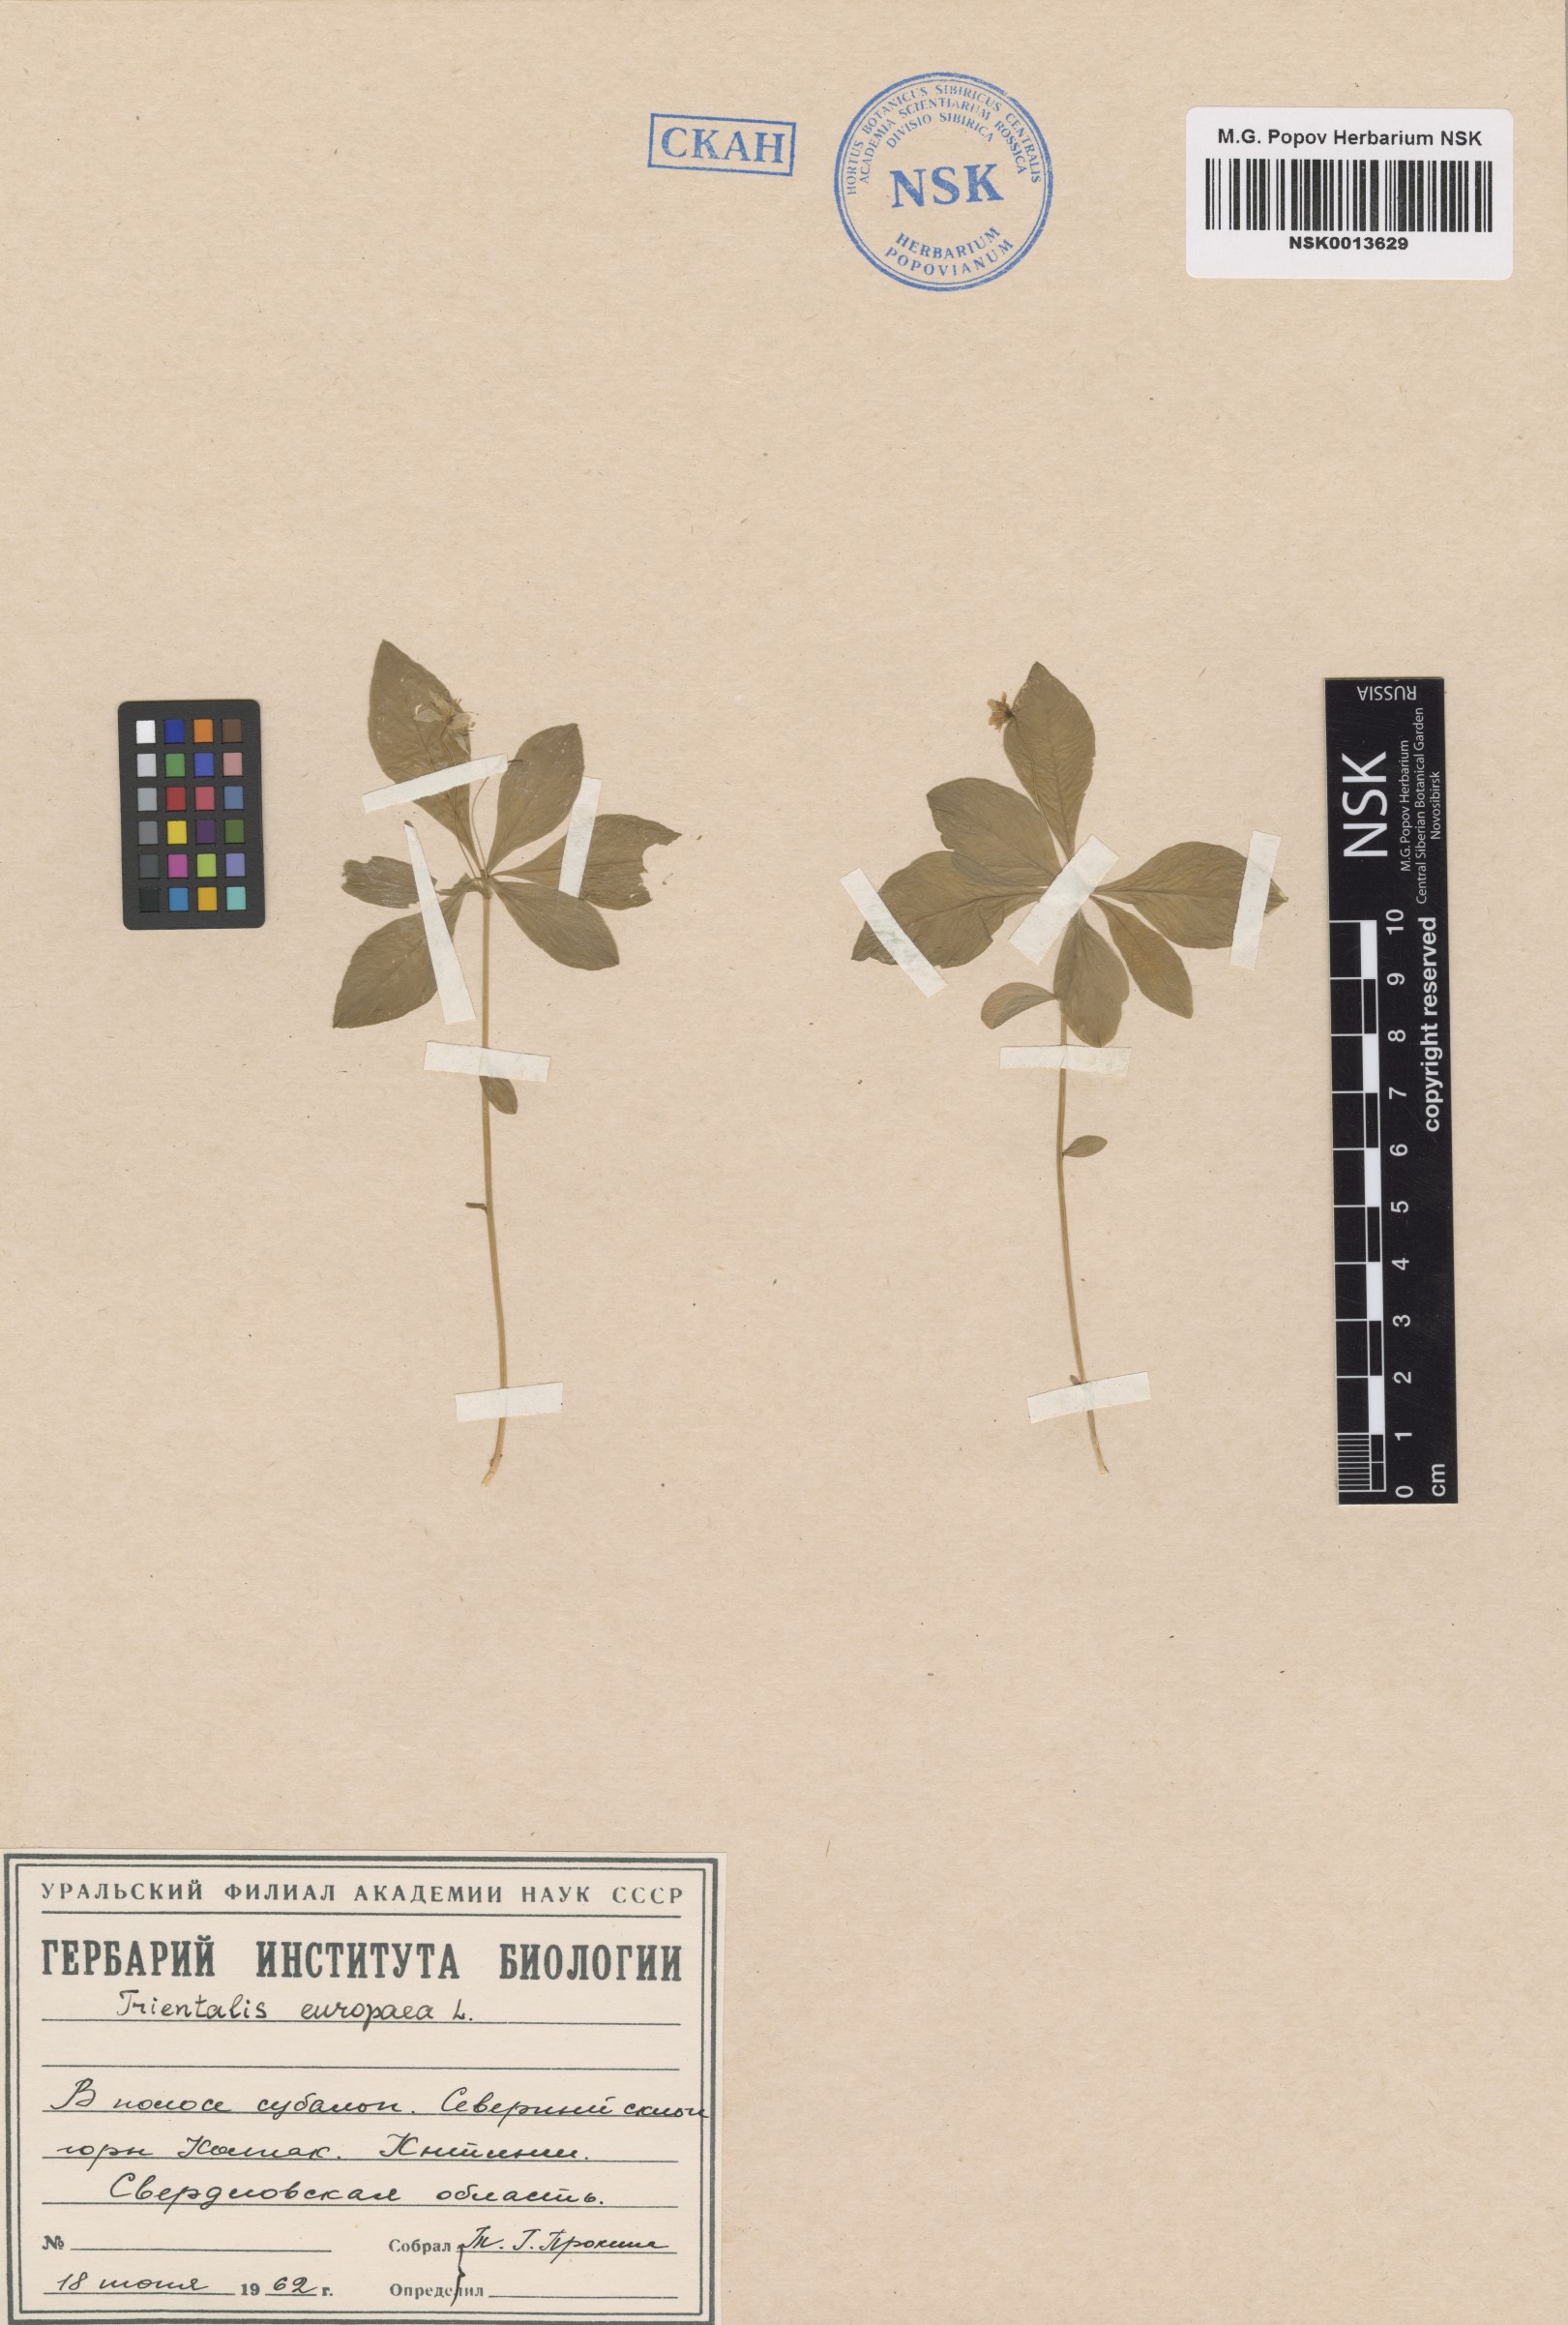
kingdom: Plantae
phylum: Tracheophyta
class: Magnoliopsida
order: Ericales
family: Primulaceae
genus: Lysimachia
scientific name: Lysimachia europaea
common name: Arctic starflower
